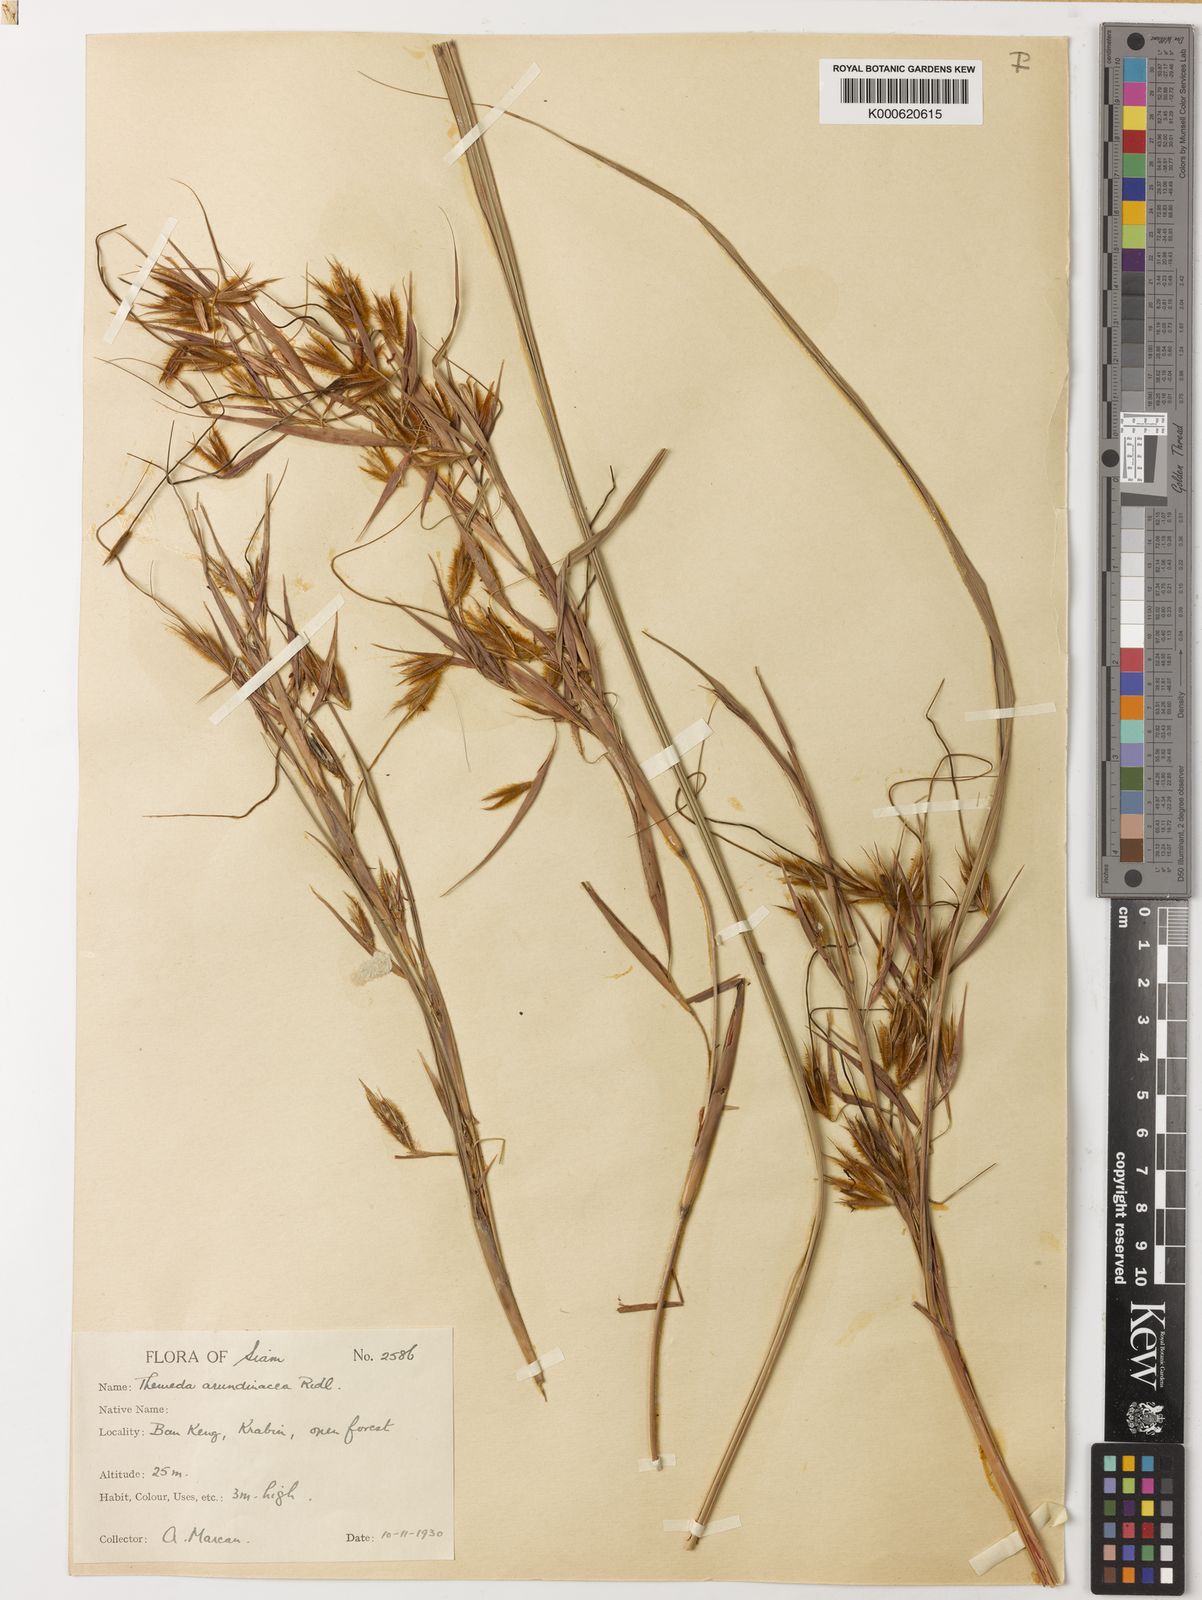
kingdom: Plantae
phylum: Tracheophyta
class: Liliopsida
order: Poales
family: Poaceae
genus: Themeda
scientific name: Themeda arundinacea
